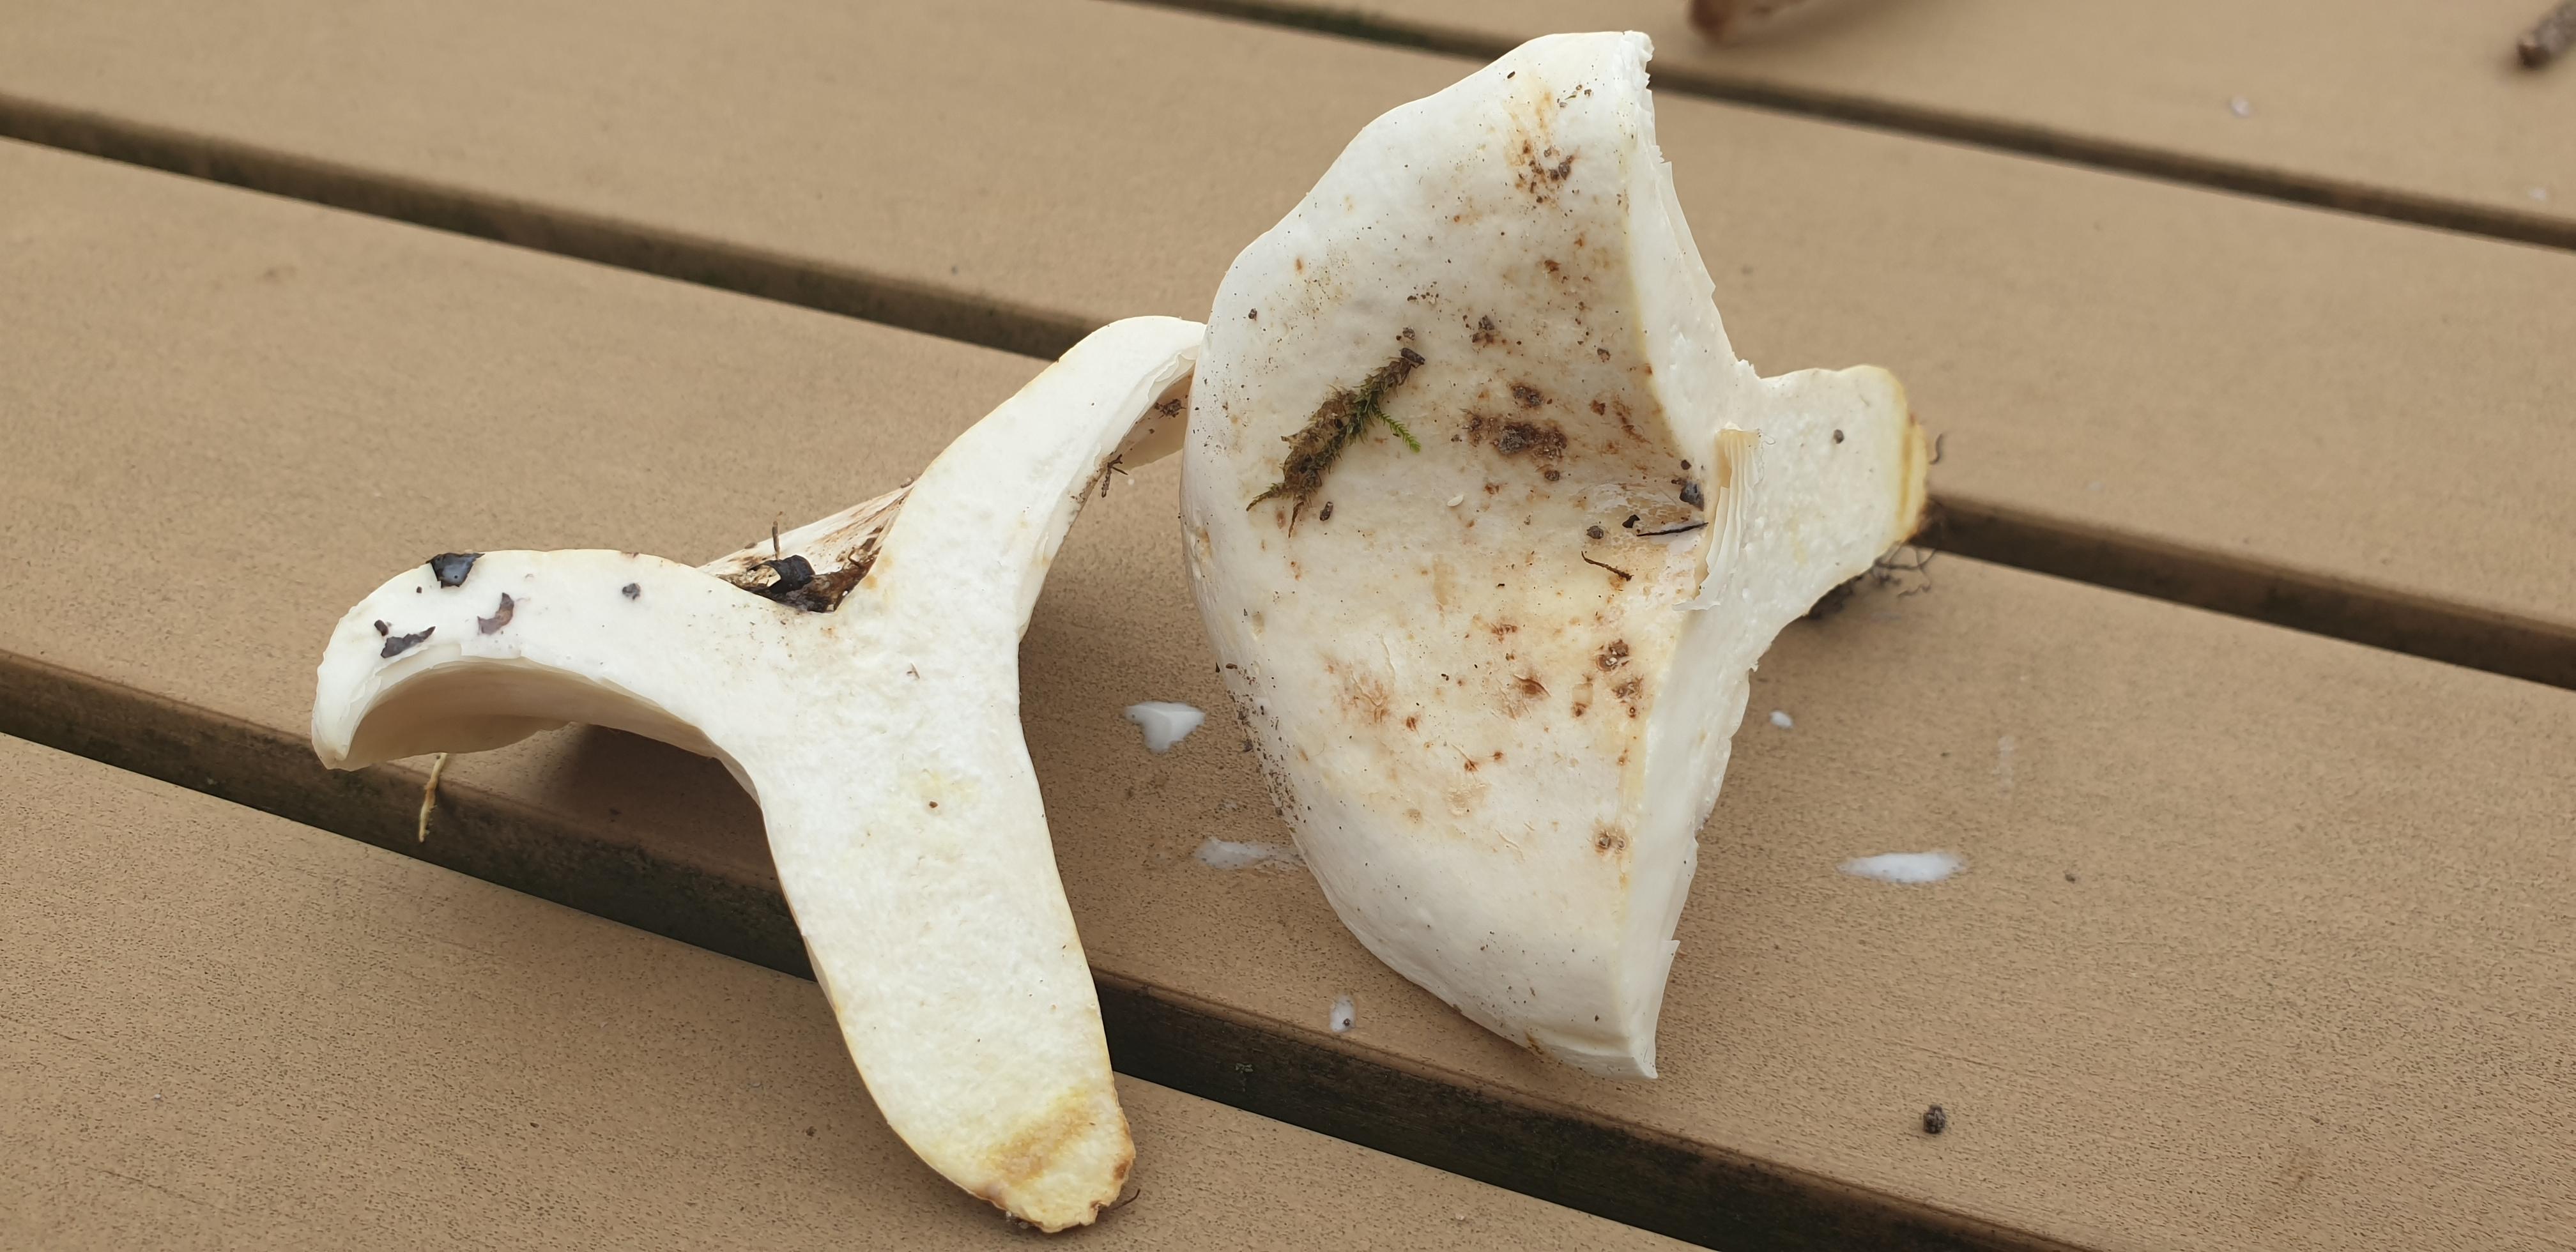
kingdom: Fungi
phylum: Basidiomycota
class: Agaricomycetes
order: Russulales
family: Russulaceae
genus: Lactifluus
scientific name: Lactifluus piperatus
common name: peber-mælkehat
